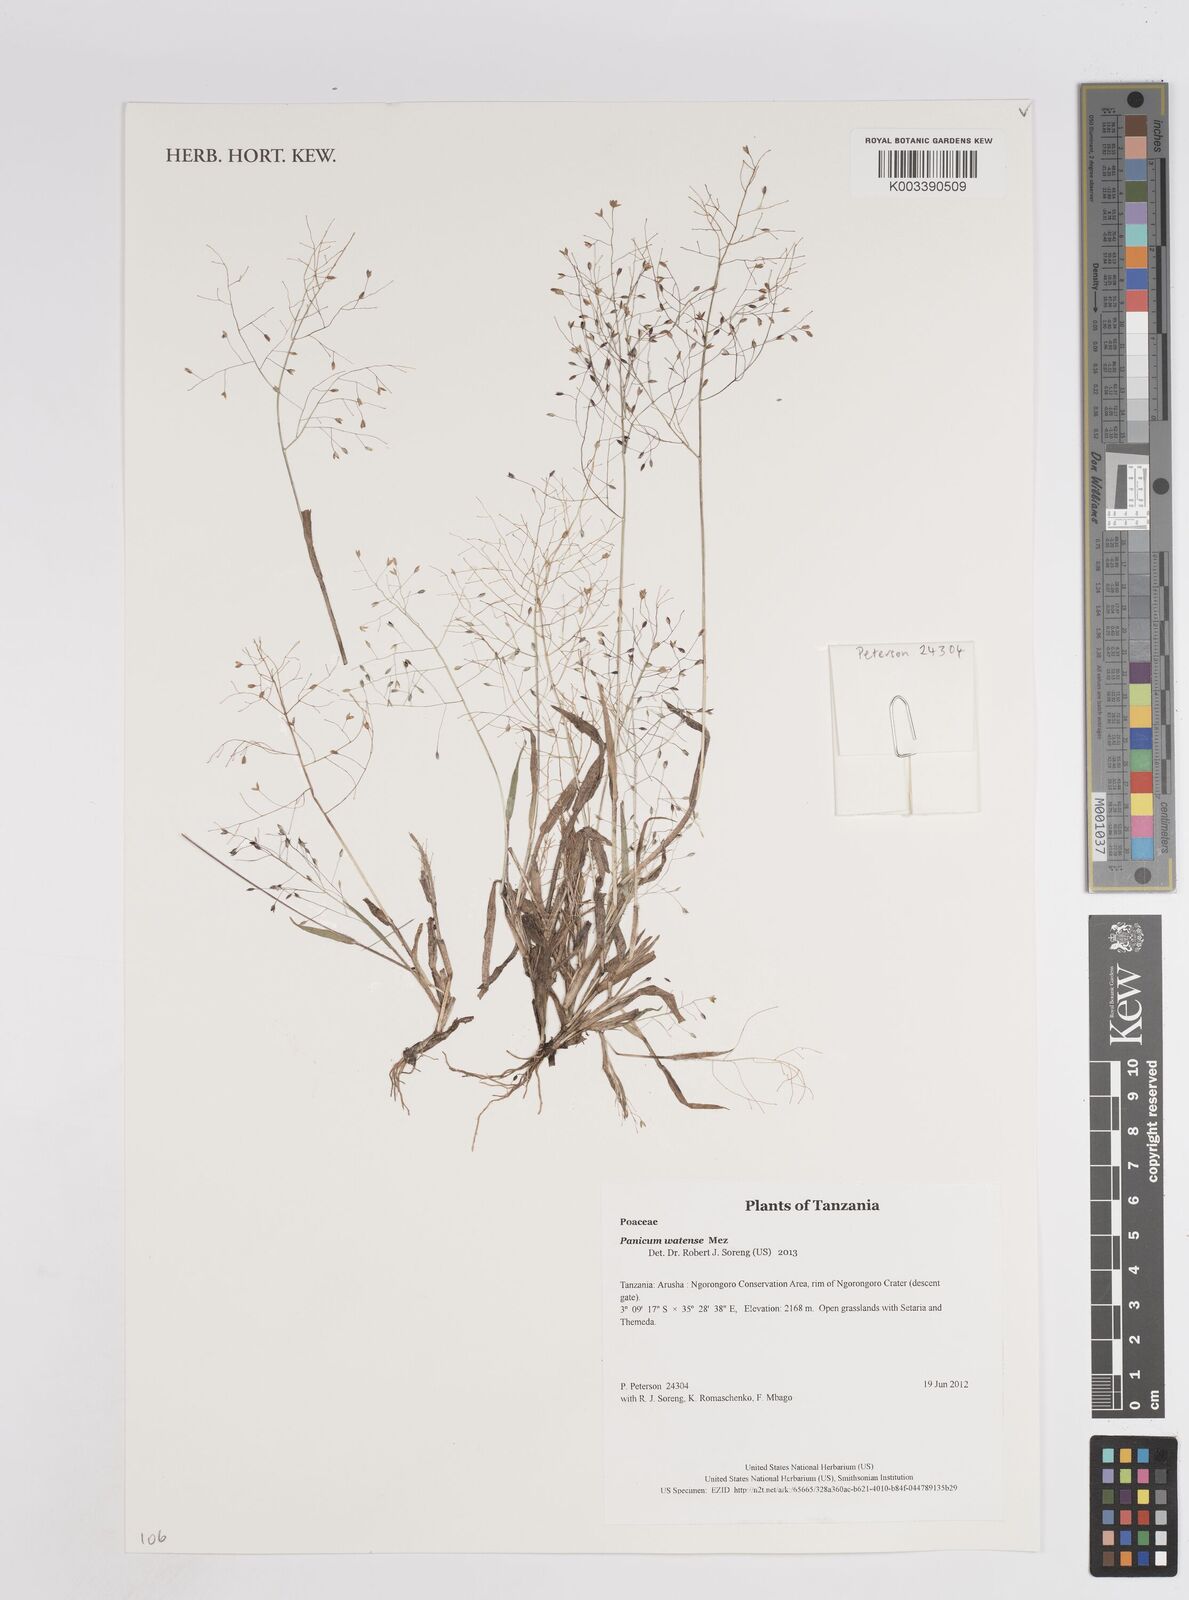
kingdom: Plantae
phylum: Tracheophyta
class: Liliopsida
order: Poales
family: Poaceae
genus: Panicum
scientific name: Panicum humile
